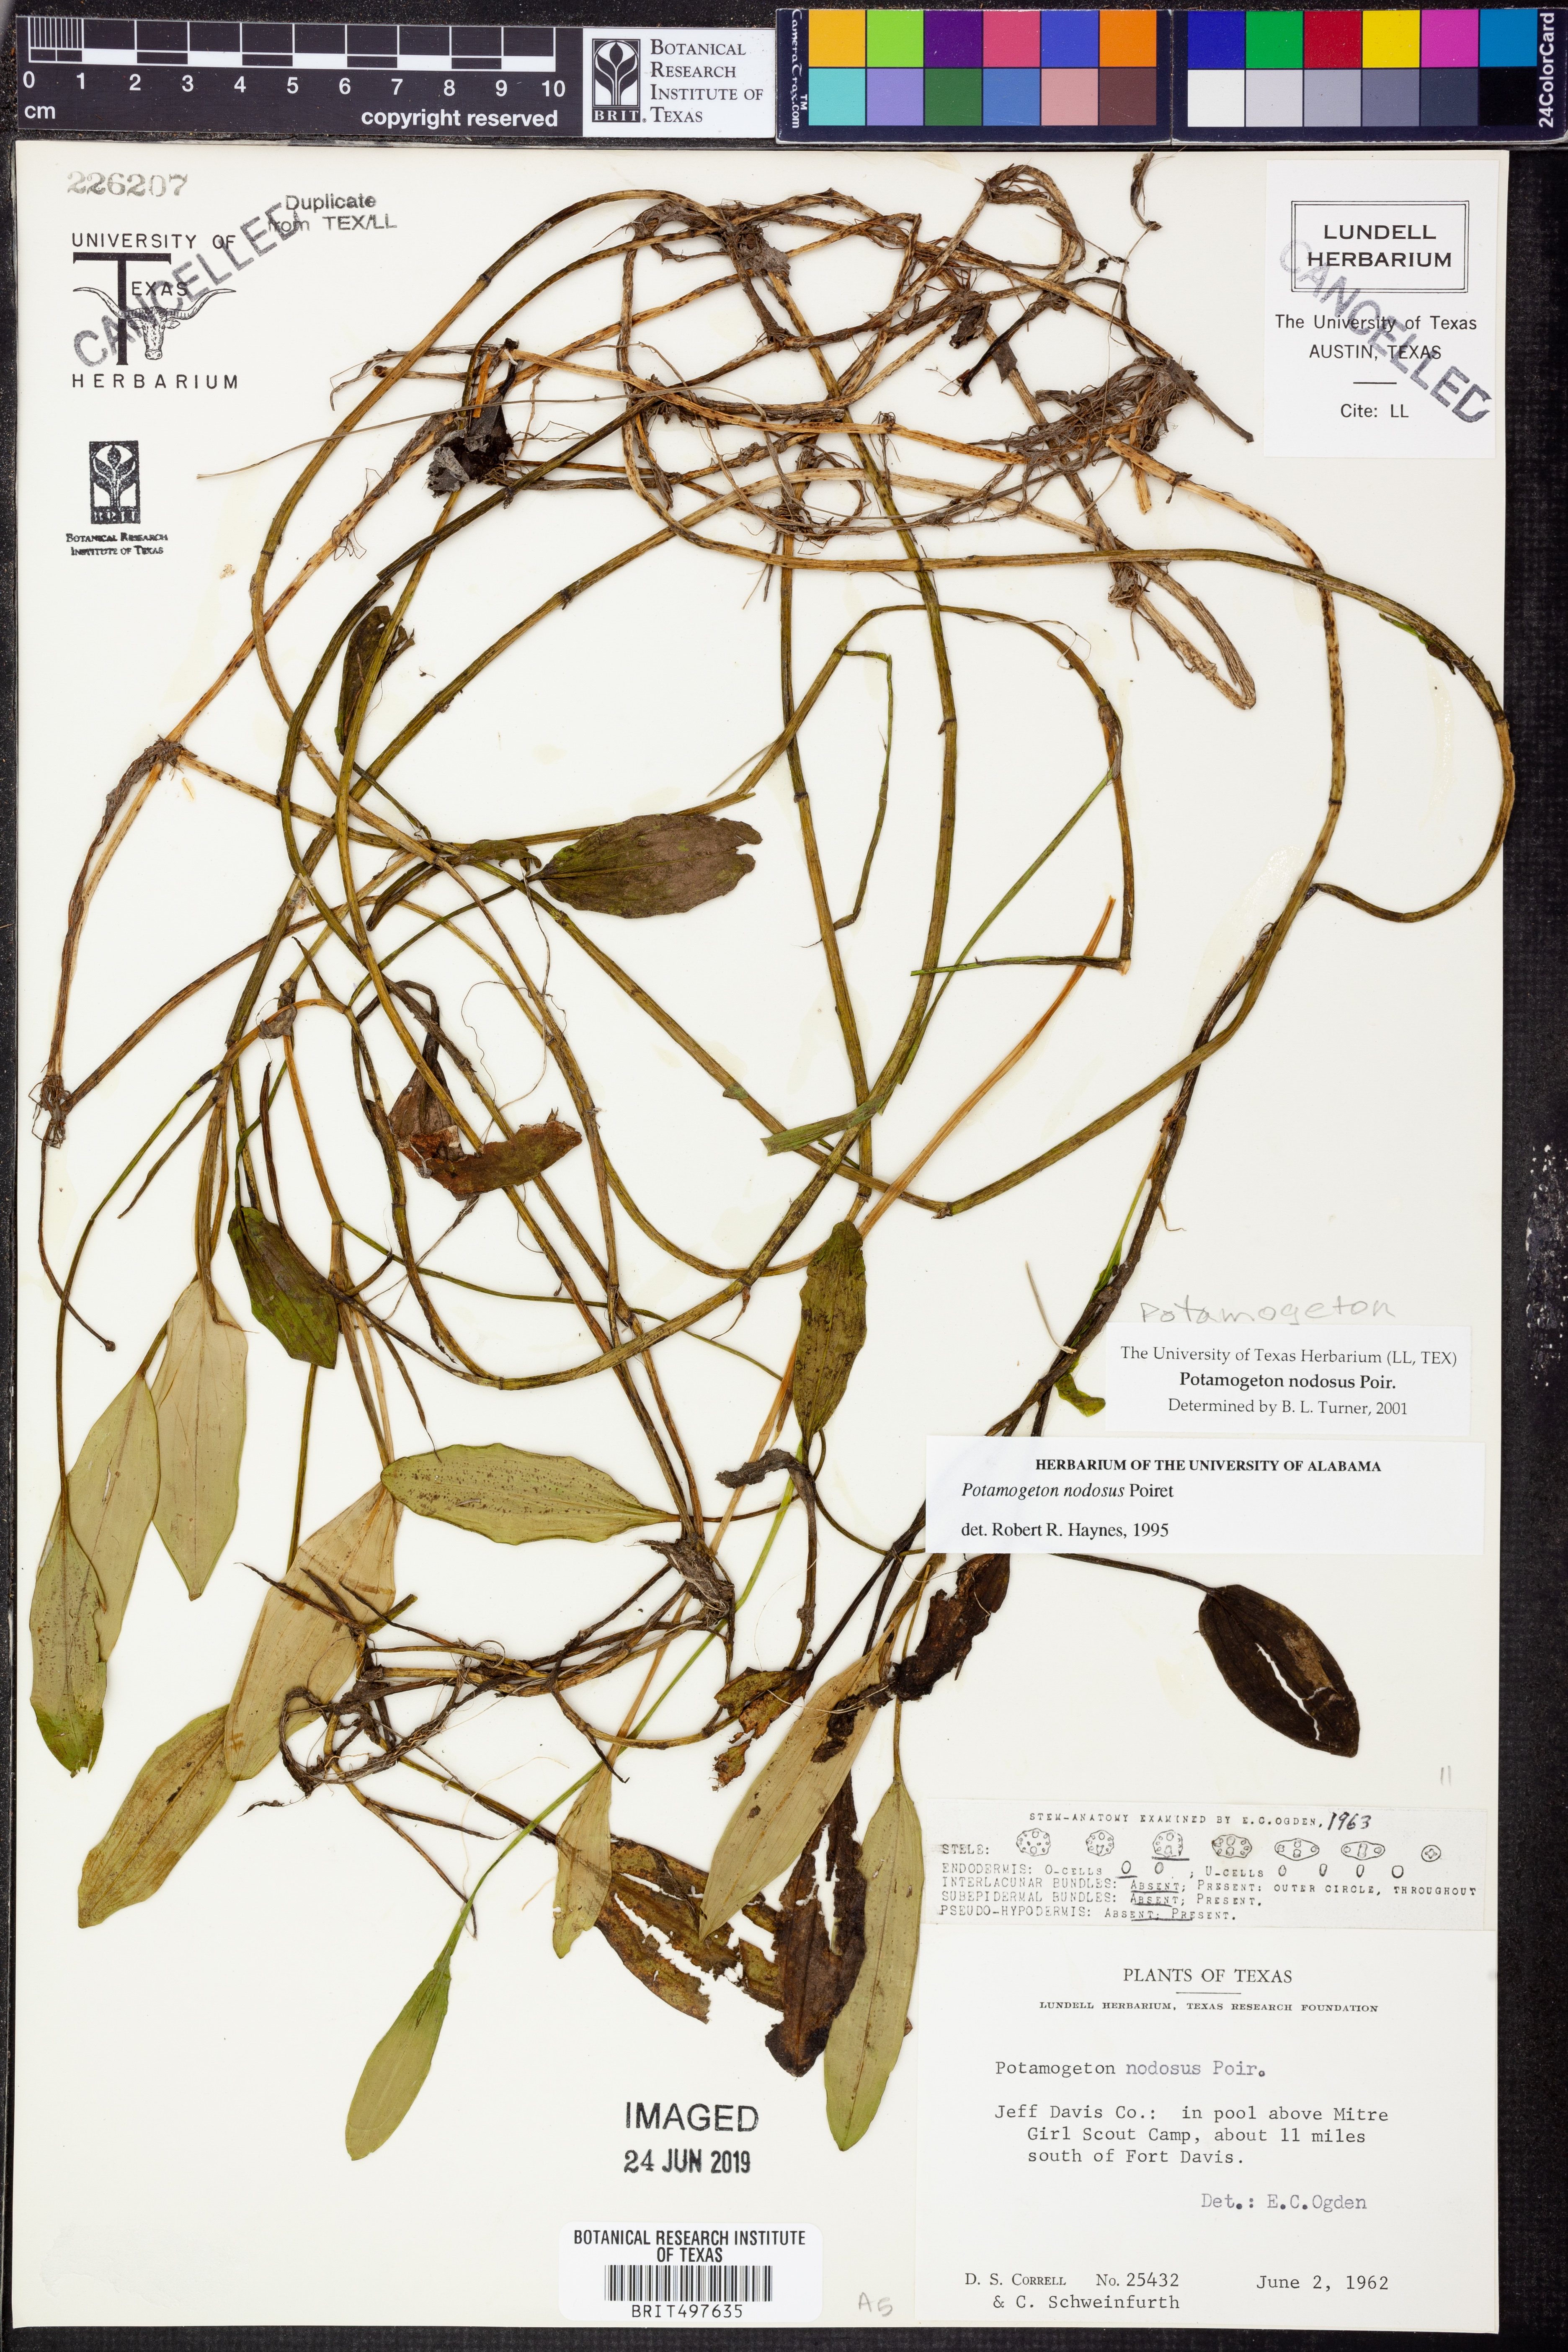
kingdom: Plantae
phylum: Tracheophyta
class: Liliopsida
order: Alismatales
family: Potamogetonaceae
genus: Potamogeton
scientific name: Potamogeton nodosus
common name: Loddon pondweed
